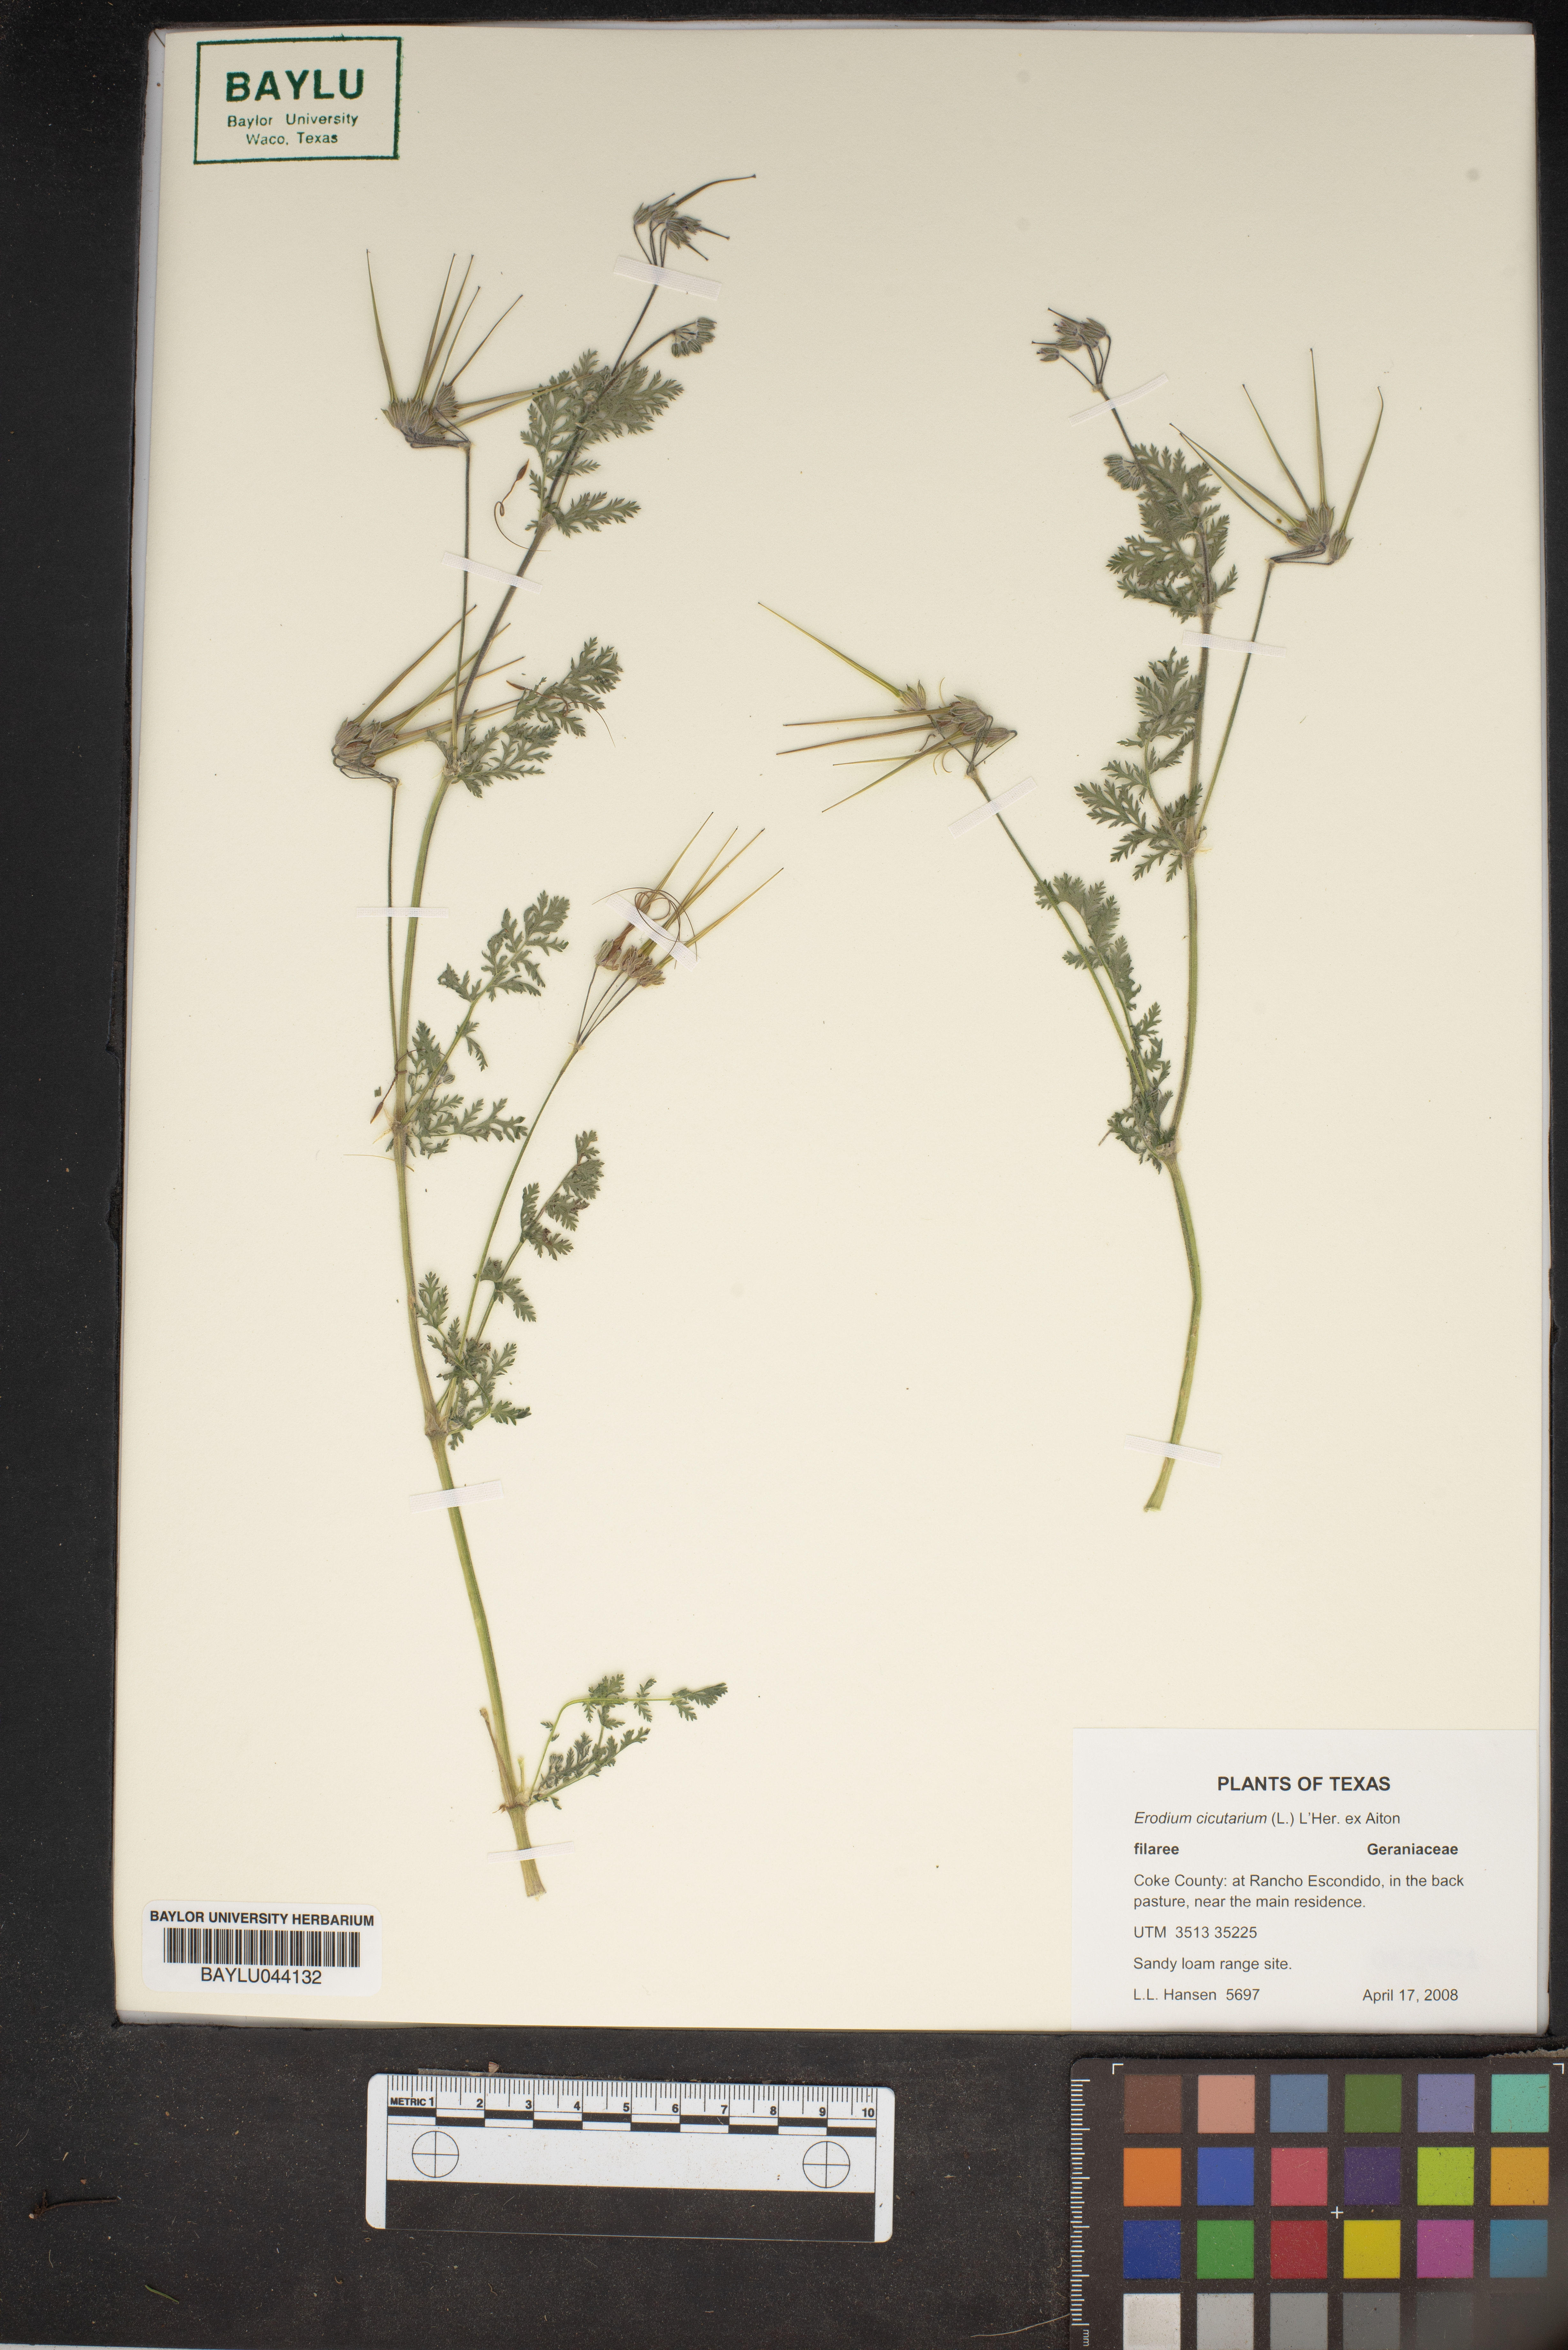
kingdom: Plantae
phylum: Tracheophyta
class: Magnoliopsida
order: Geraniales
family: Geraniaceae
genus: Erodium
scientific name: Erodium cicutarium
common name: Common stork's-bill
